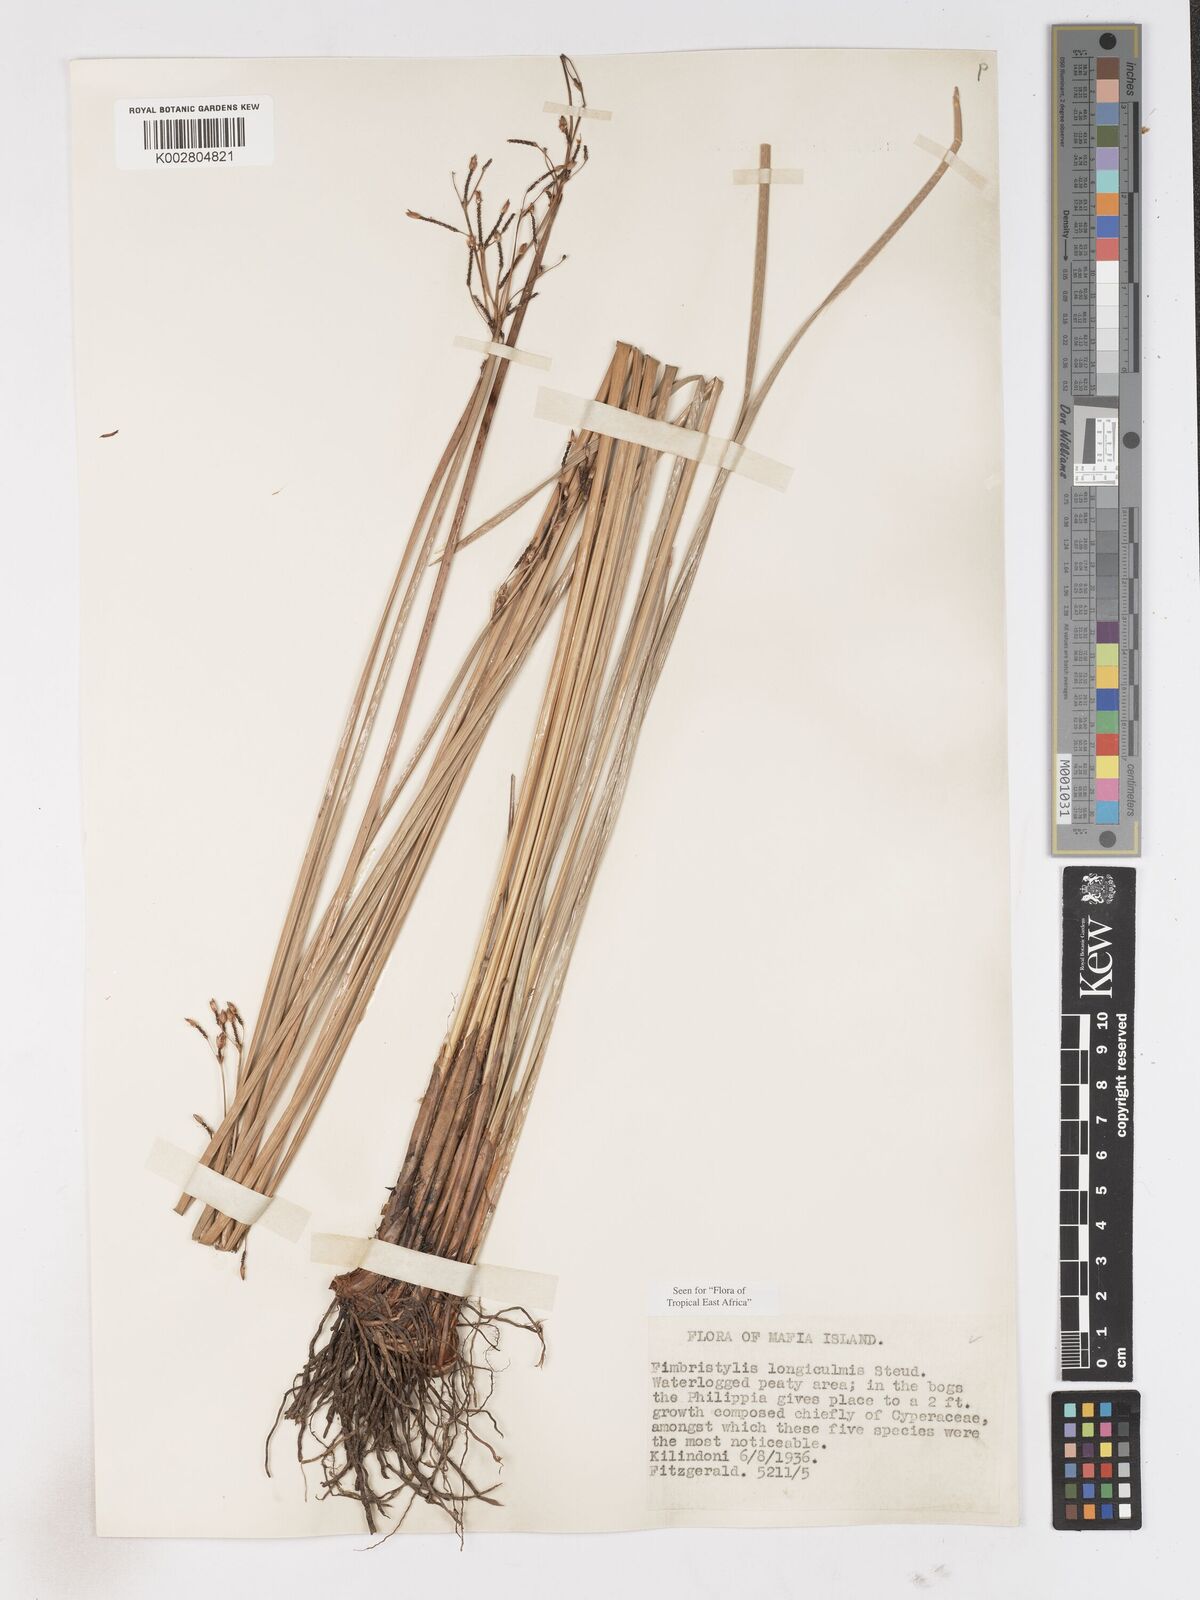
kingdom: Plantae
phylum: Tracheophyta
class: Liliopsida
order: Poales
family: Cyperaceae
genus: Fimbristylis
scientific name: Fimbristylis bivalvis
